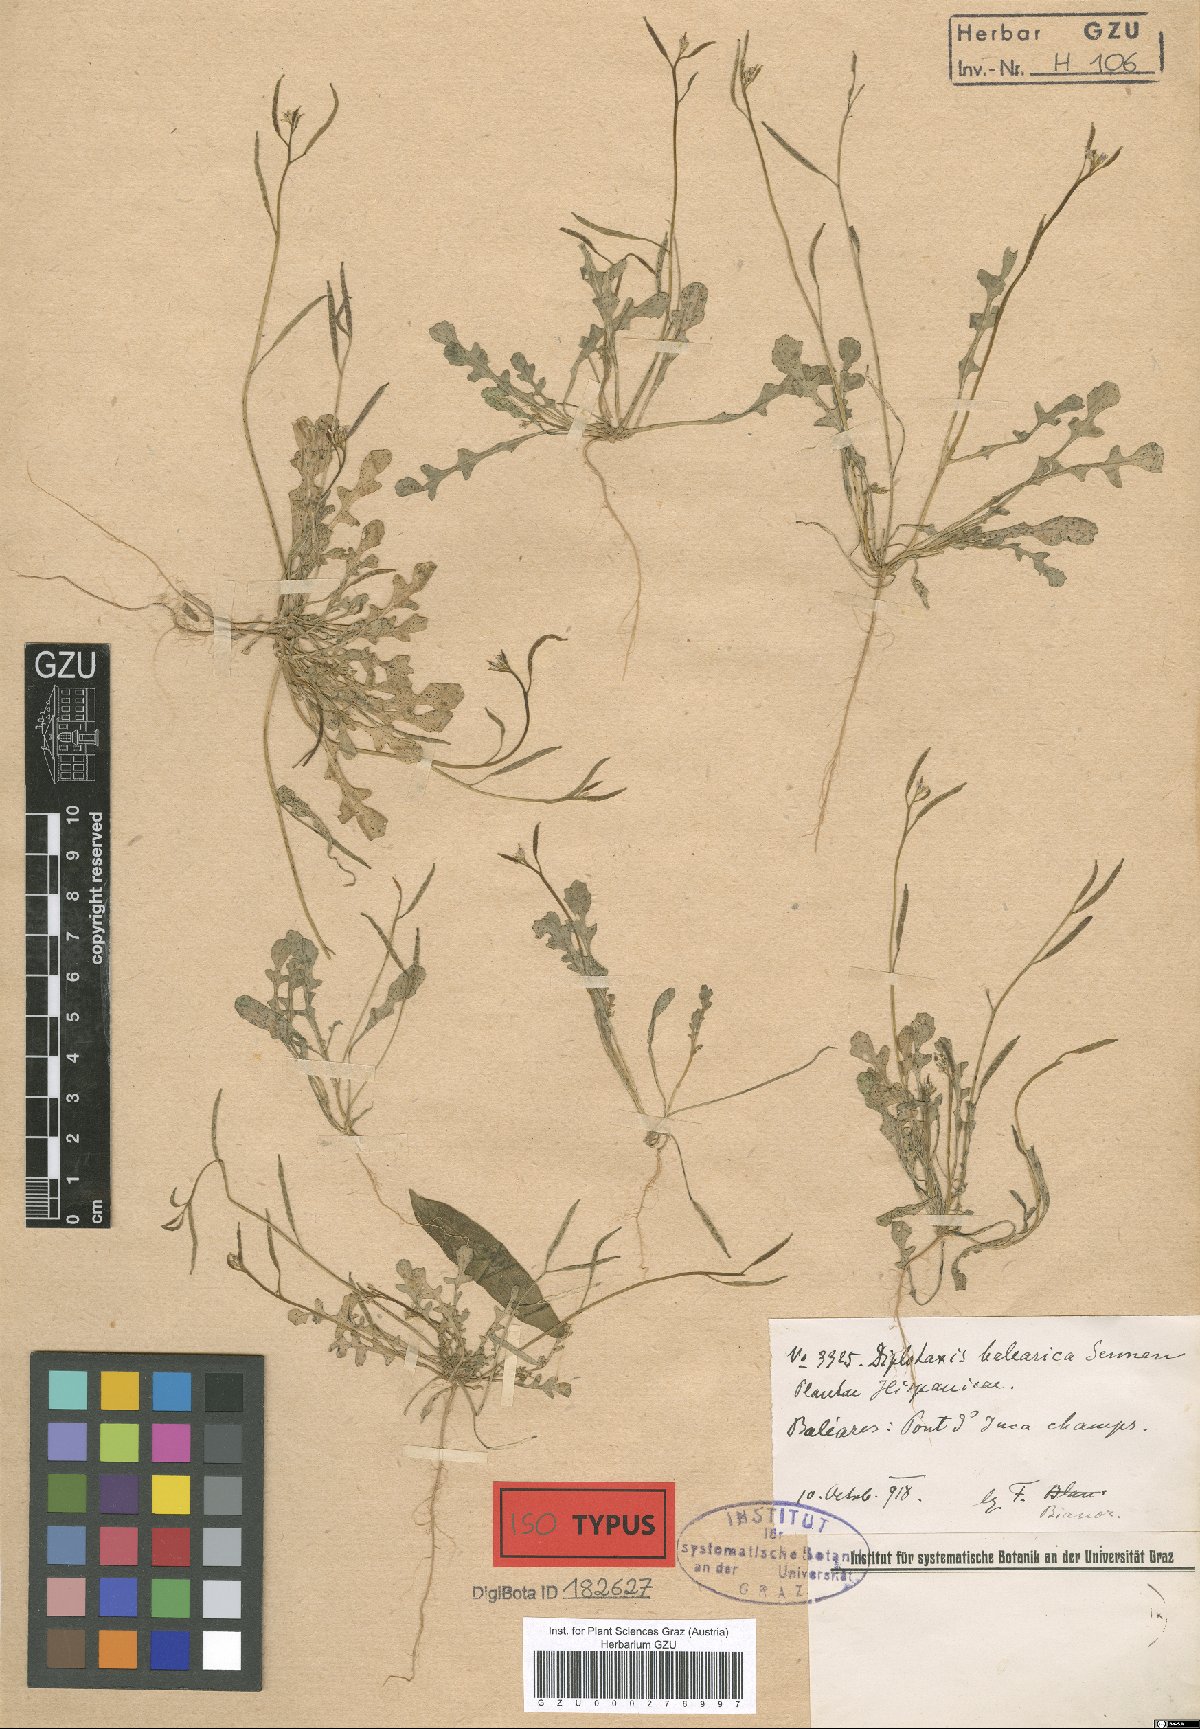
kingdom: Plantae
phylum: Tracheophyta
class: Magnoliopsida
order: Brassicales
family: Brassicaceae
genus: Diplotaxis
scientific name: Diplotaxis viminea
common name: Vineyard wall rocket
